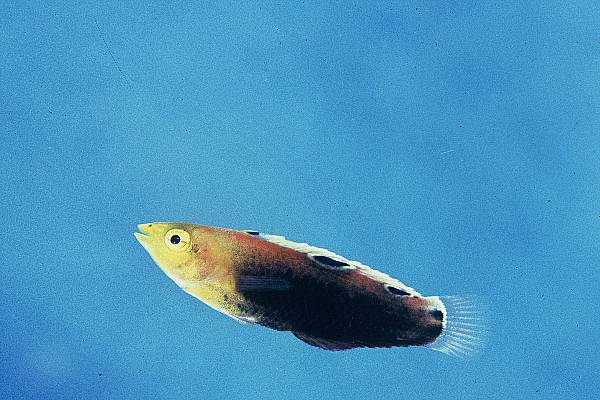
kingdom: Animalia
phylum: Chordata
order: Perciformes
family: Labridae
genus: Halichoeres
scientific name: Halichoeres iridis
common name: Rainbow wrasse
